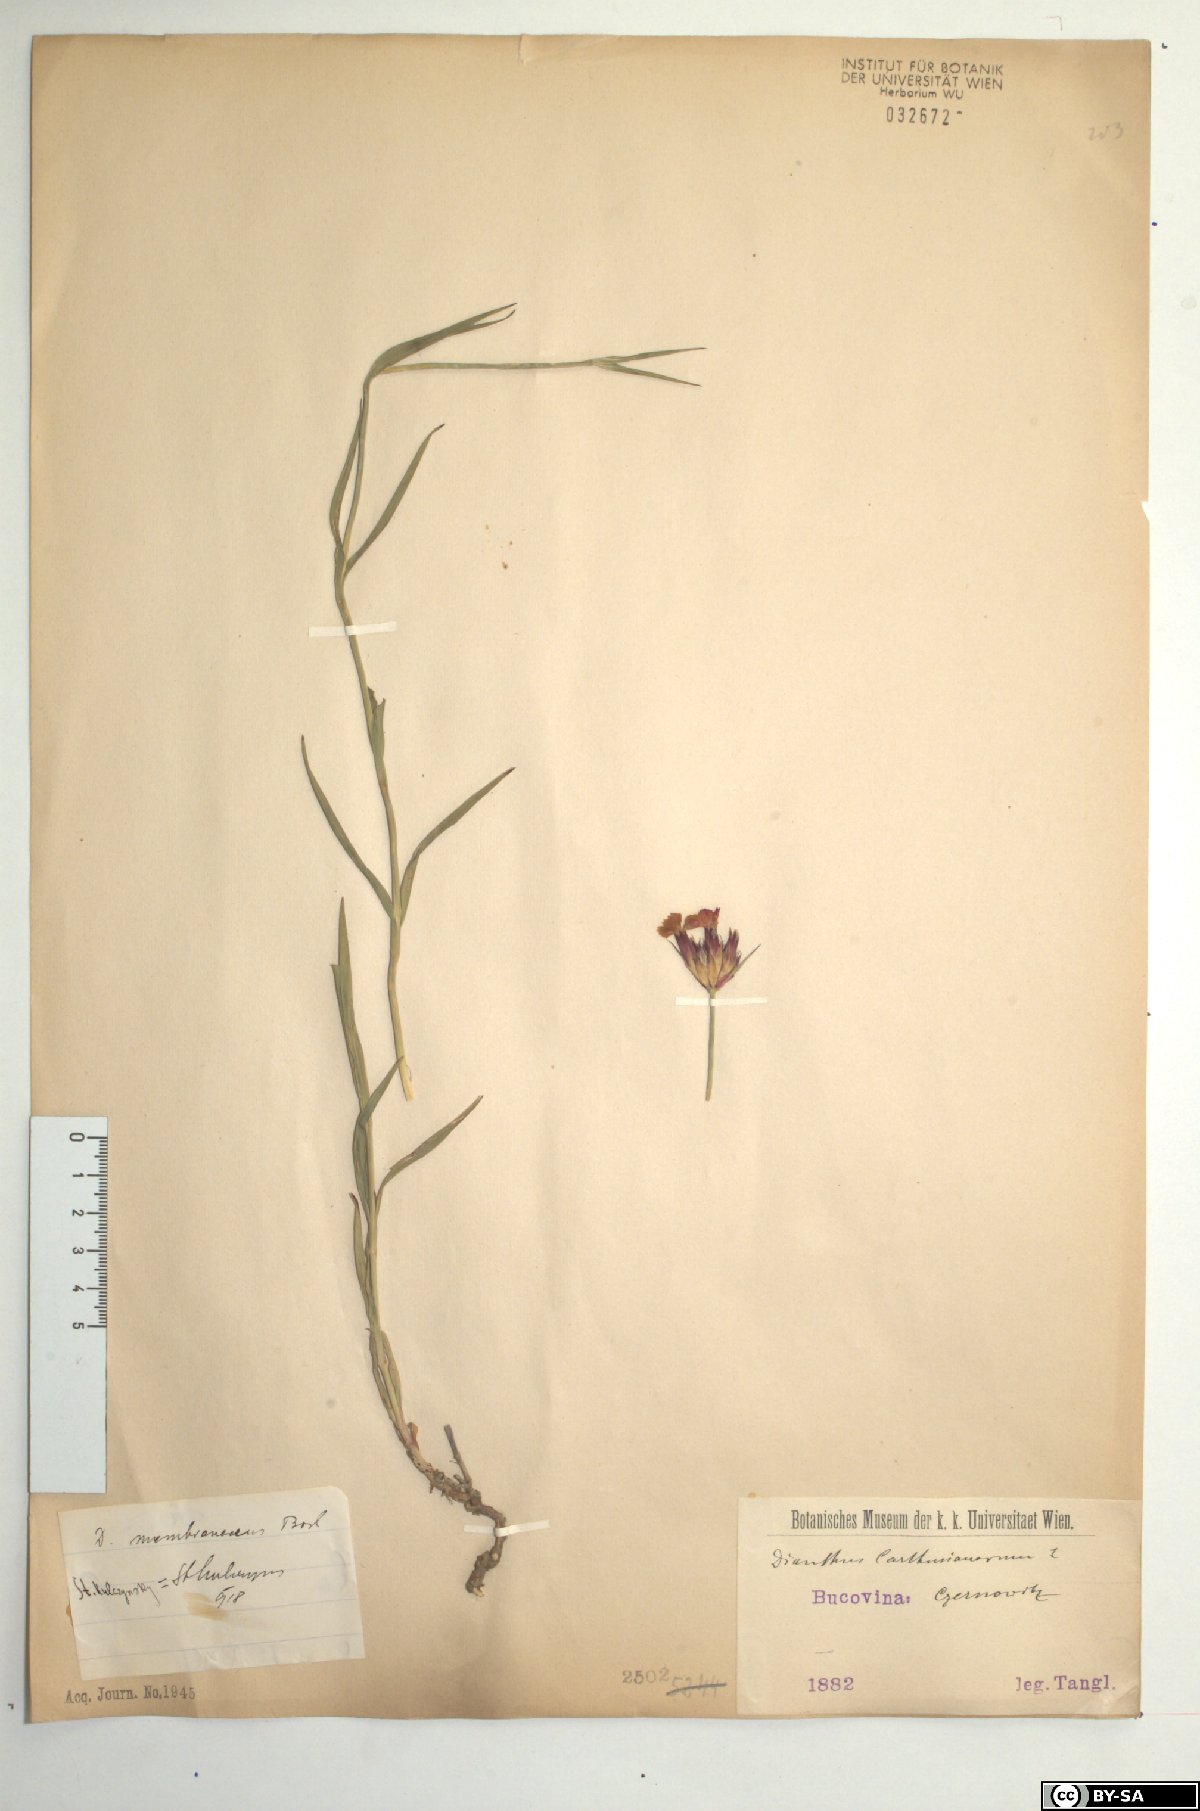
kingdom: Plantae
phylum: Tracheophyta
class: Magnoliopsida
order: Caryophyllales
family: Caryophyllaceae
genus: Dianthus
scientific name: Dianthus carthusianorum
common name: Carthusian pink
